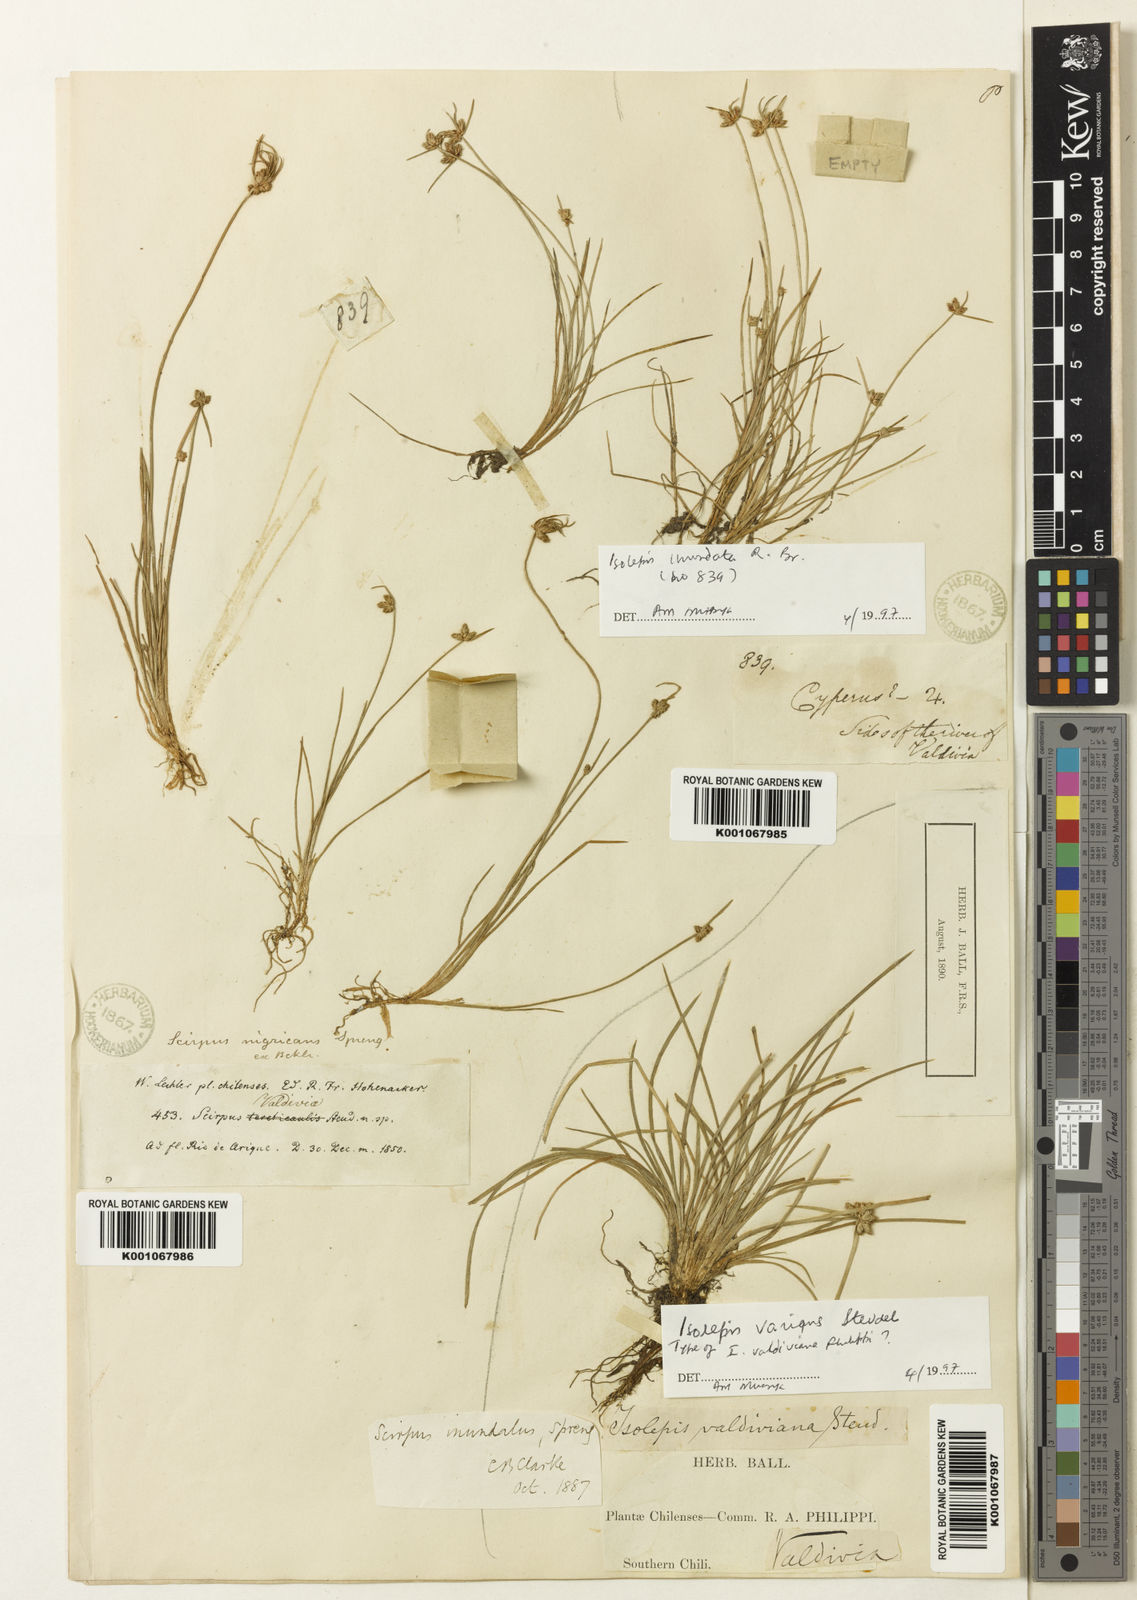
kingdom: Plantae
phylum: Tracheophyta
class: Liliopsida
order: Poales
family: Cyperaceae
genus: Isolepis
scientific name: Isolepis inundata
